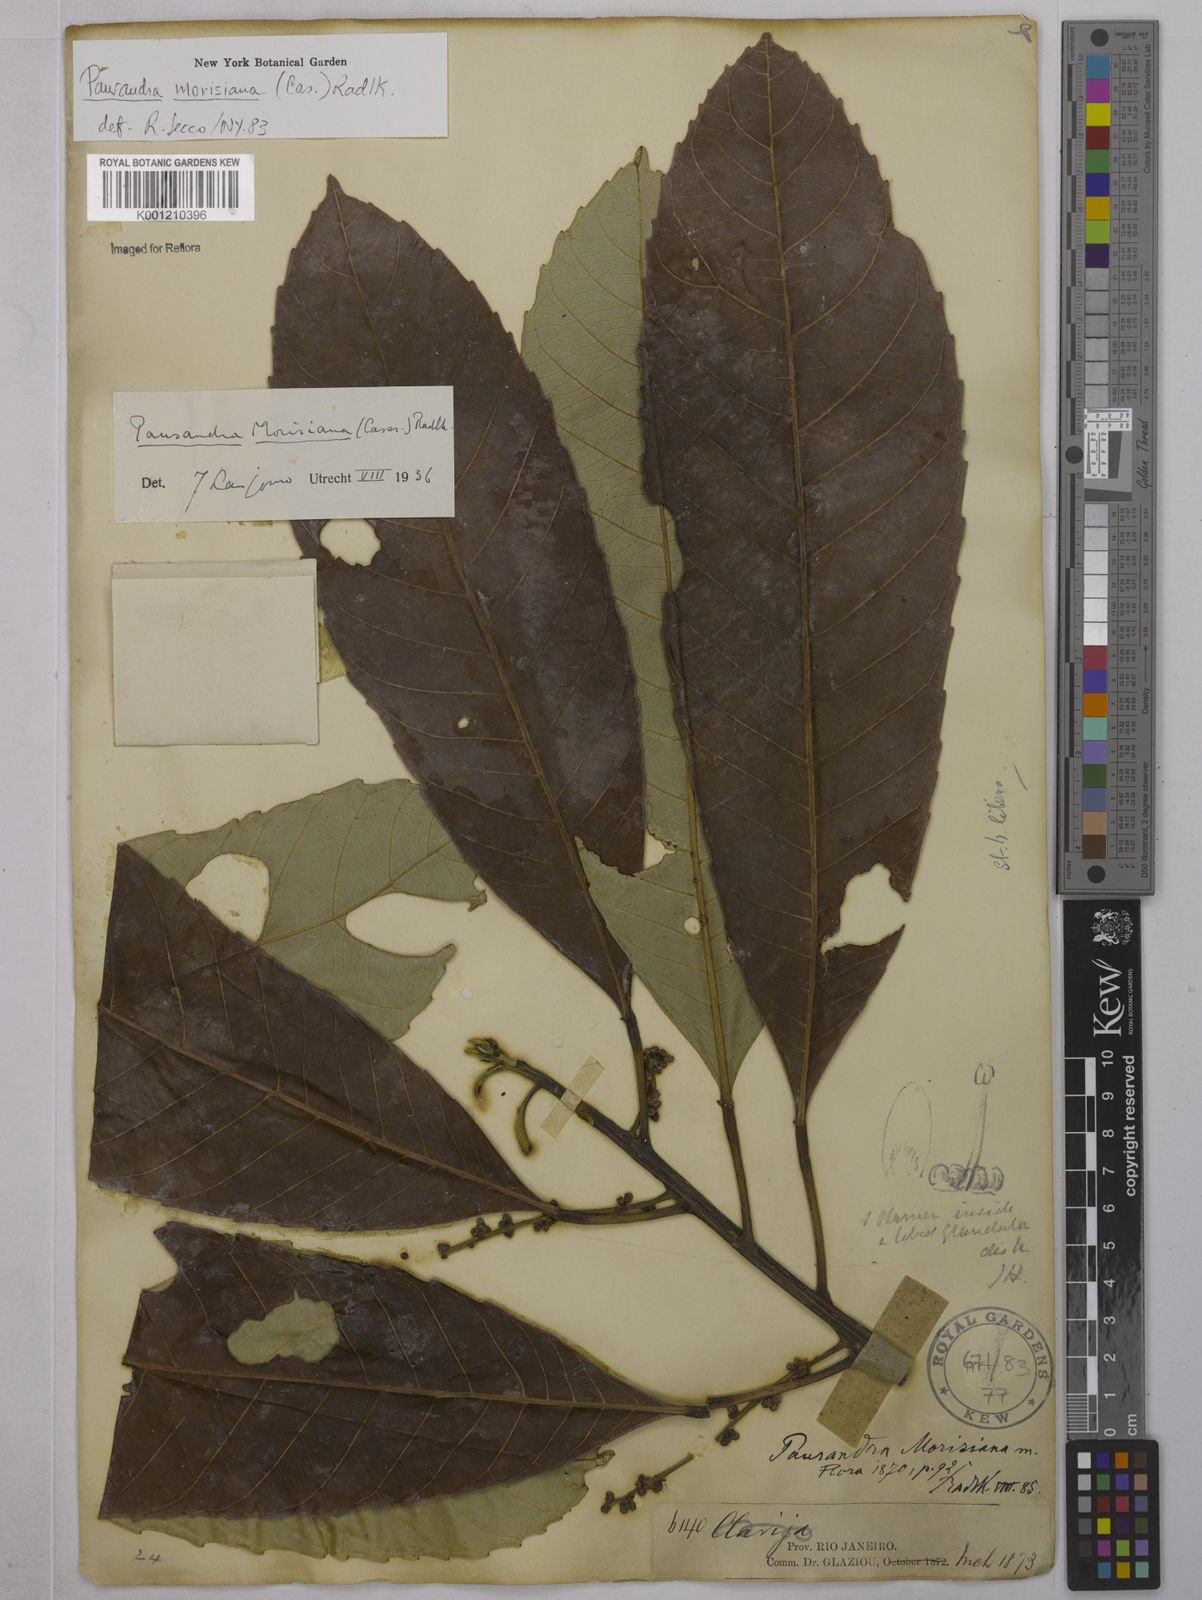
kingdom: Plantae
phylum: Tracheophyta
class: Magnoliopsida
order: Malpighiales
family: Euphorbiaceae
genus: Pausandra
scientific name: Pausandra morisiana
